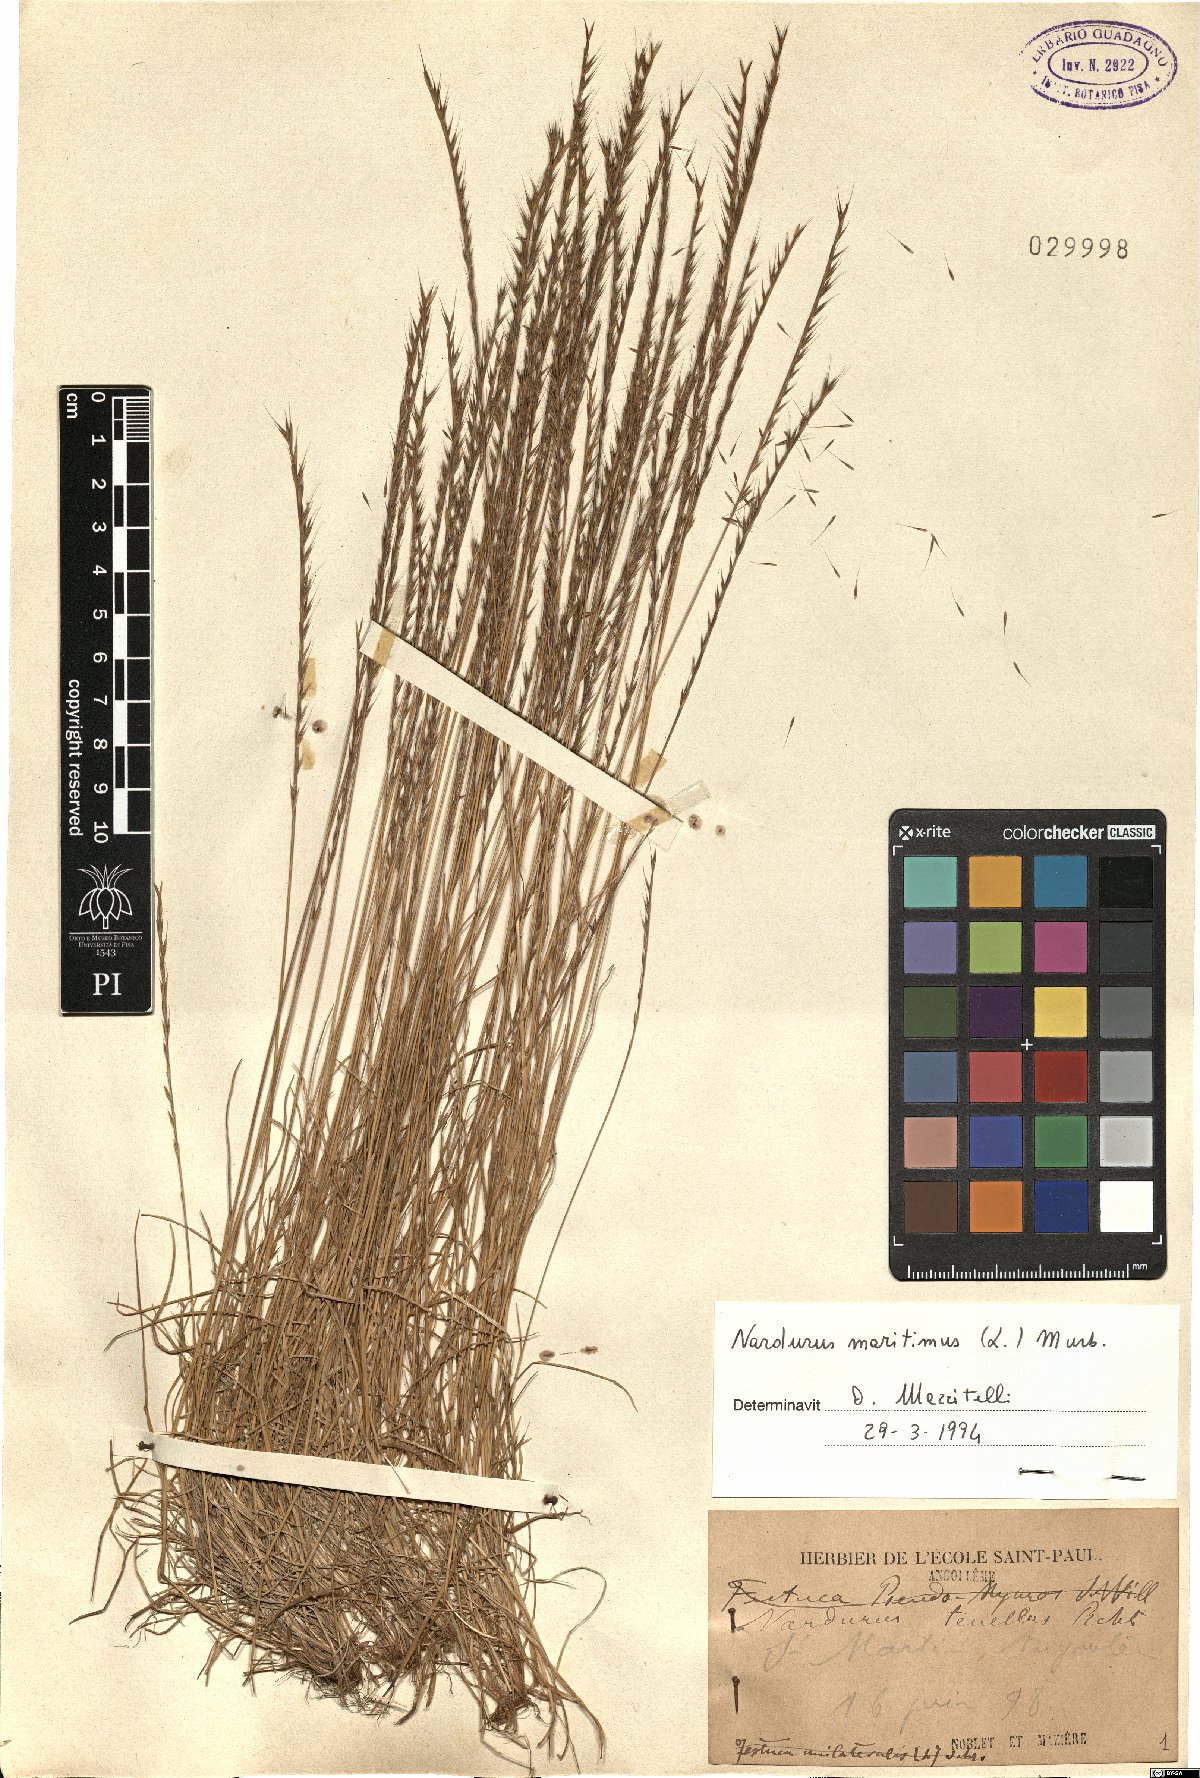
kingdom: Plantae
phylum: Tracheophyta
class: Liliopsida
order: Poales
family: Poaceae
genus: Festuca
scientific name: Festuca maritima
